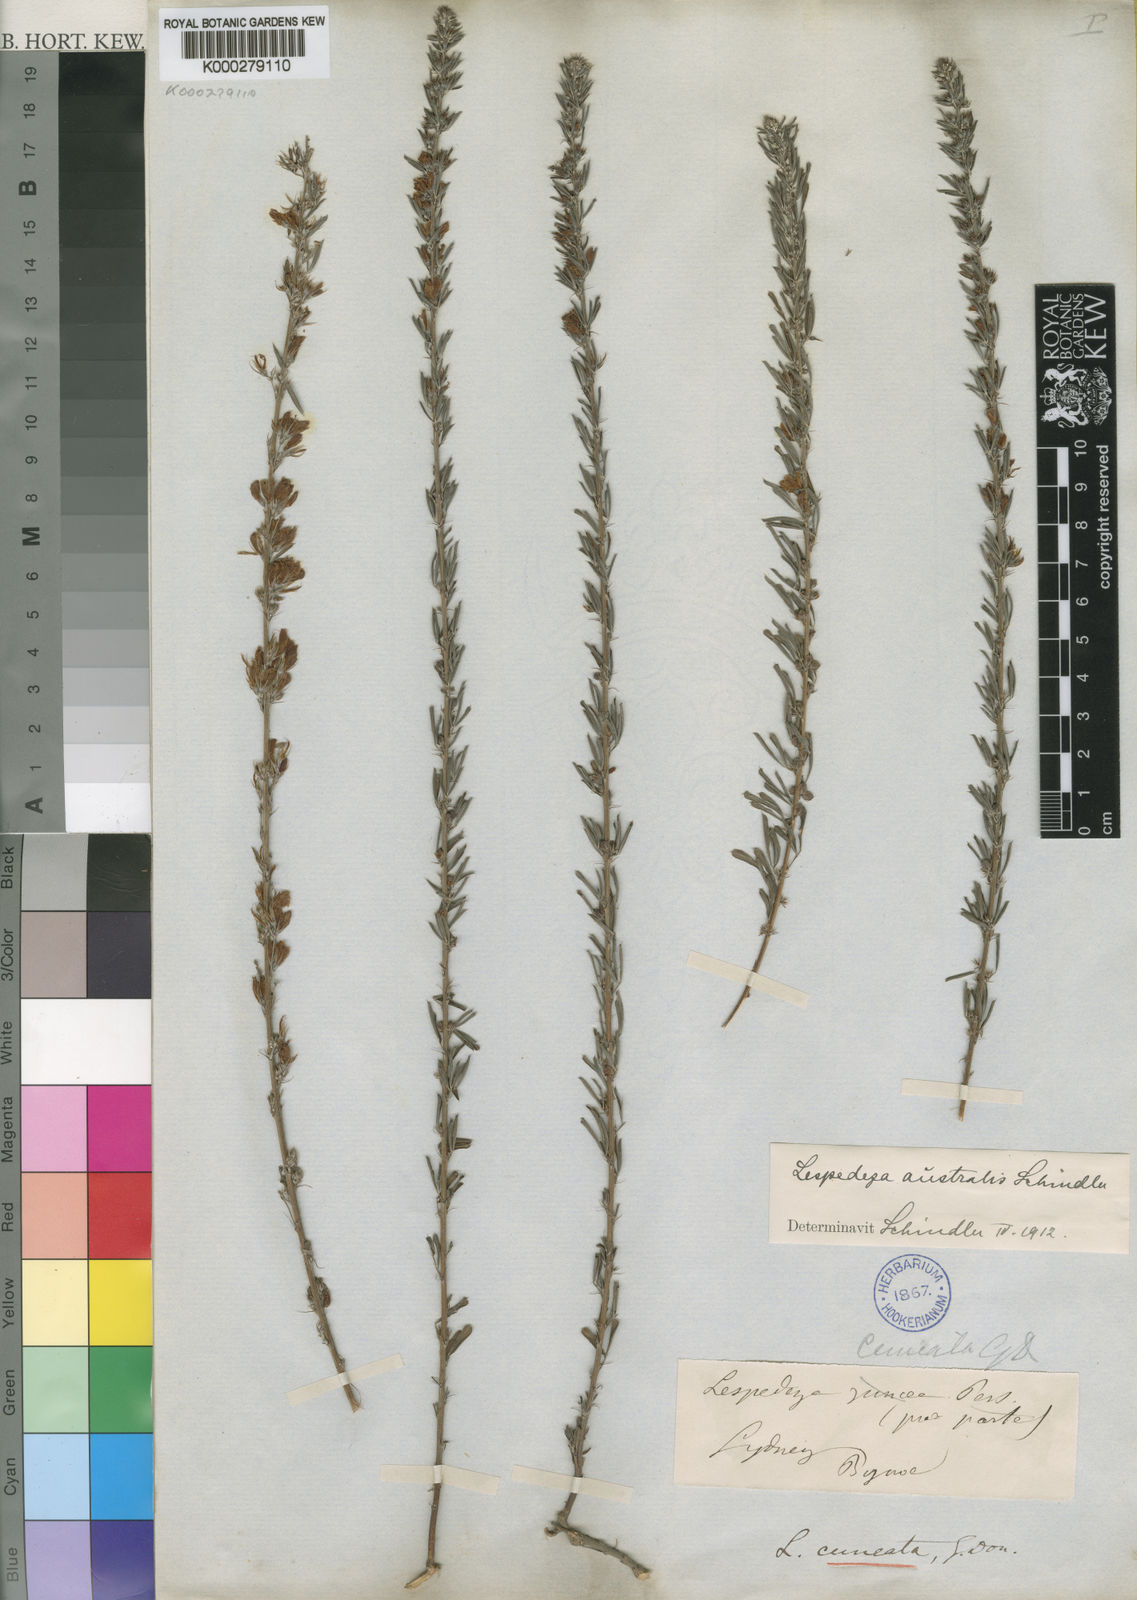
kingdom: Plantae
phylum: Tracheophyta
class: Magnoliopsida
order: Fabales
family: Fabaceae
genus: Lespedeza
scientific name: Lespedeza cuneata
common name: Chinese bush-clover
